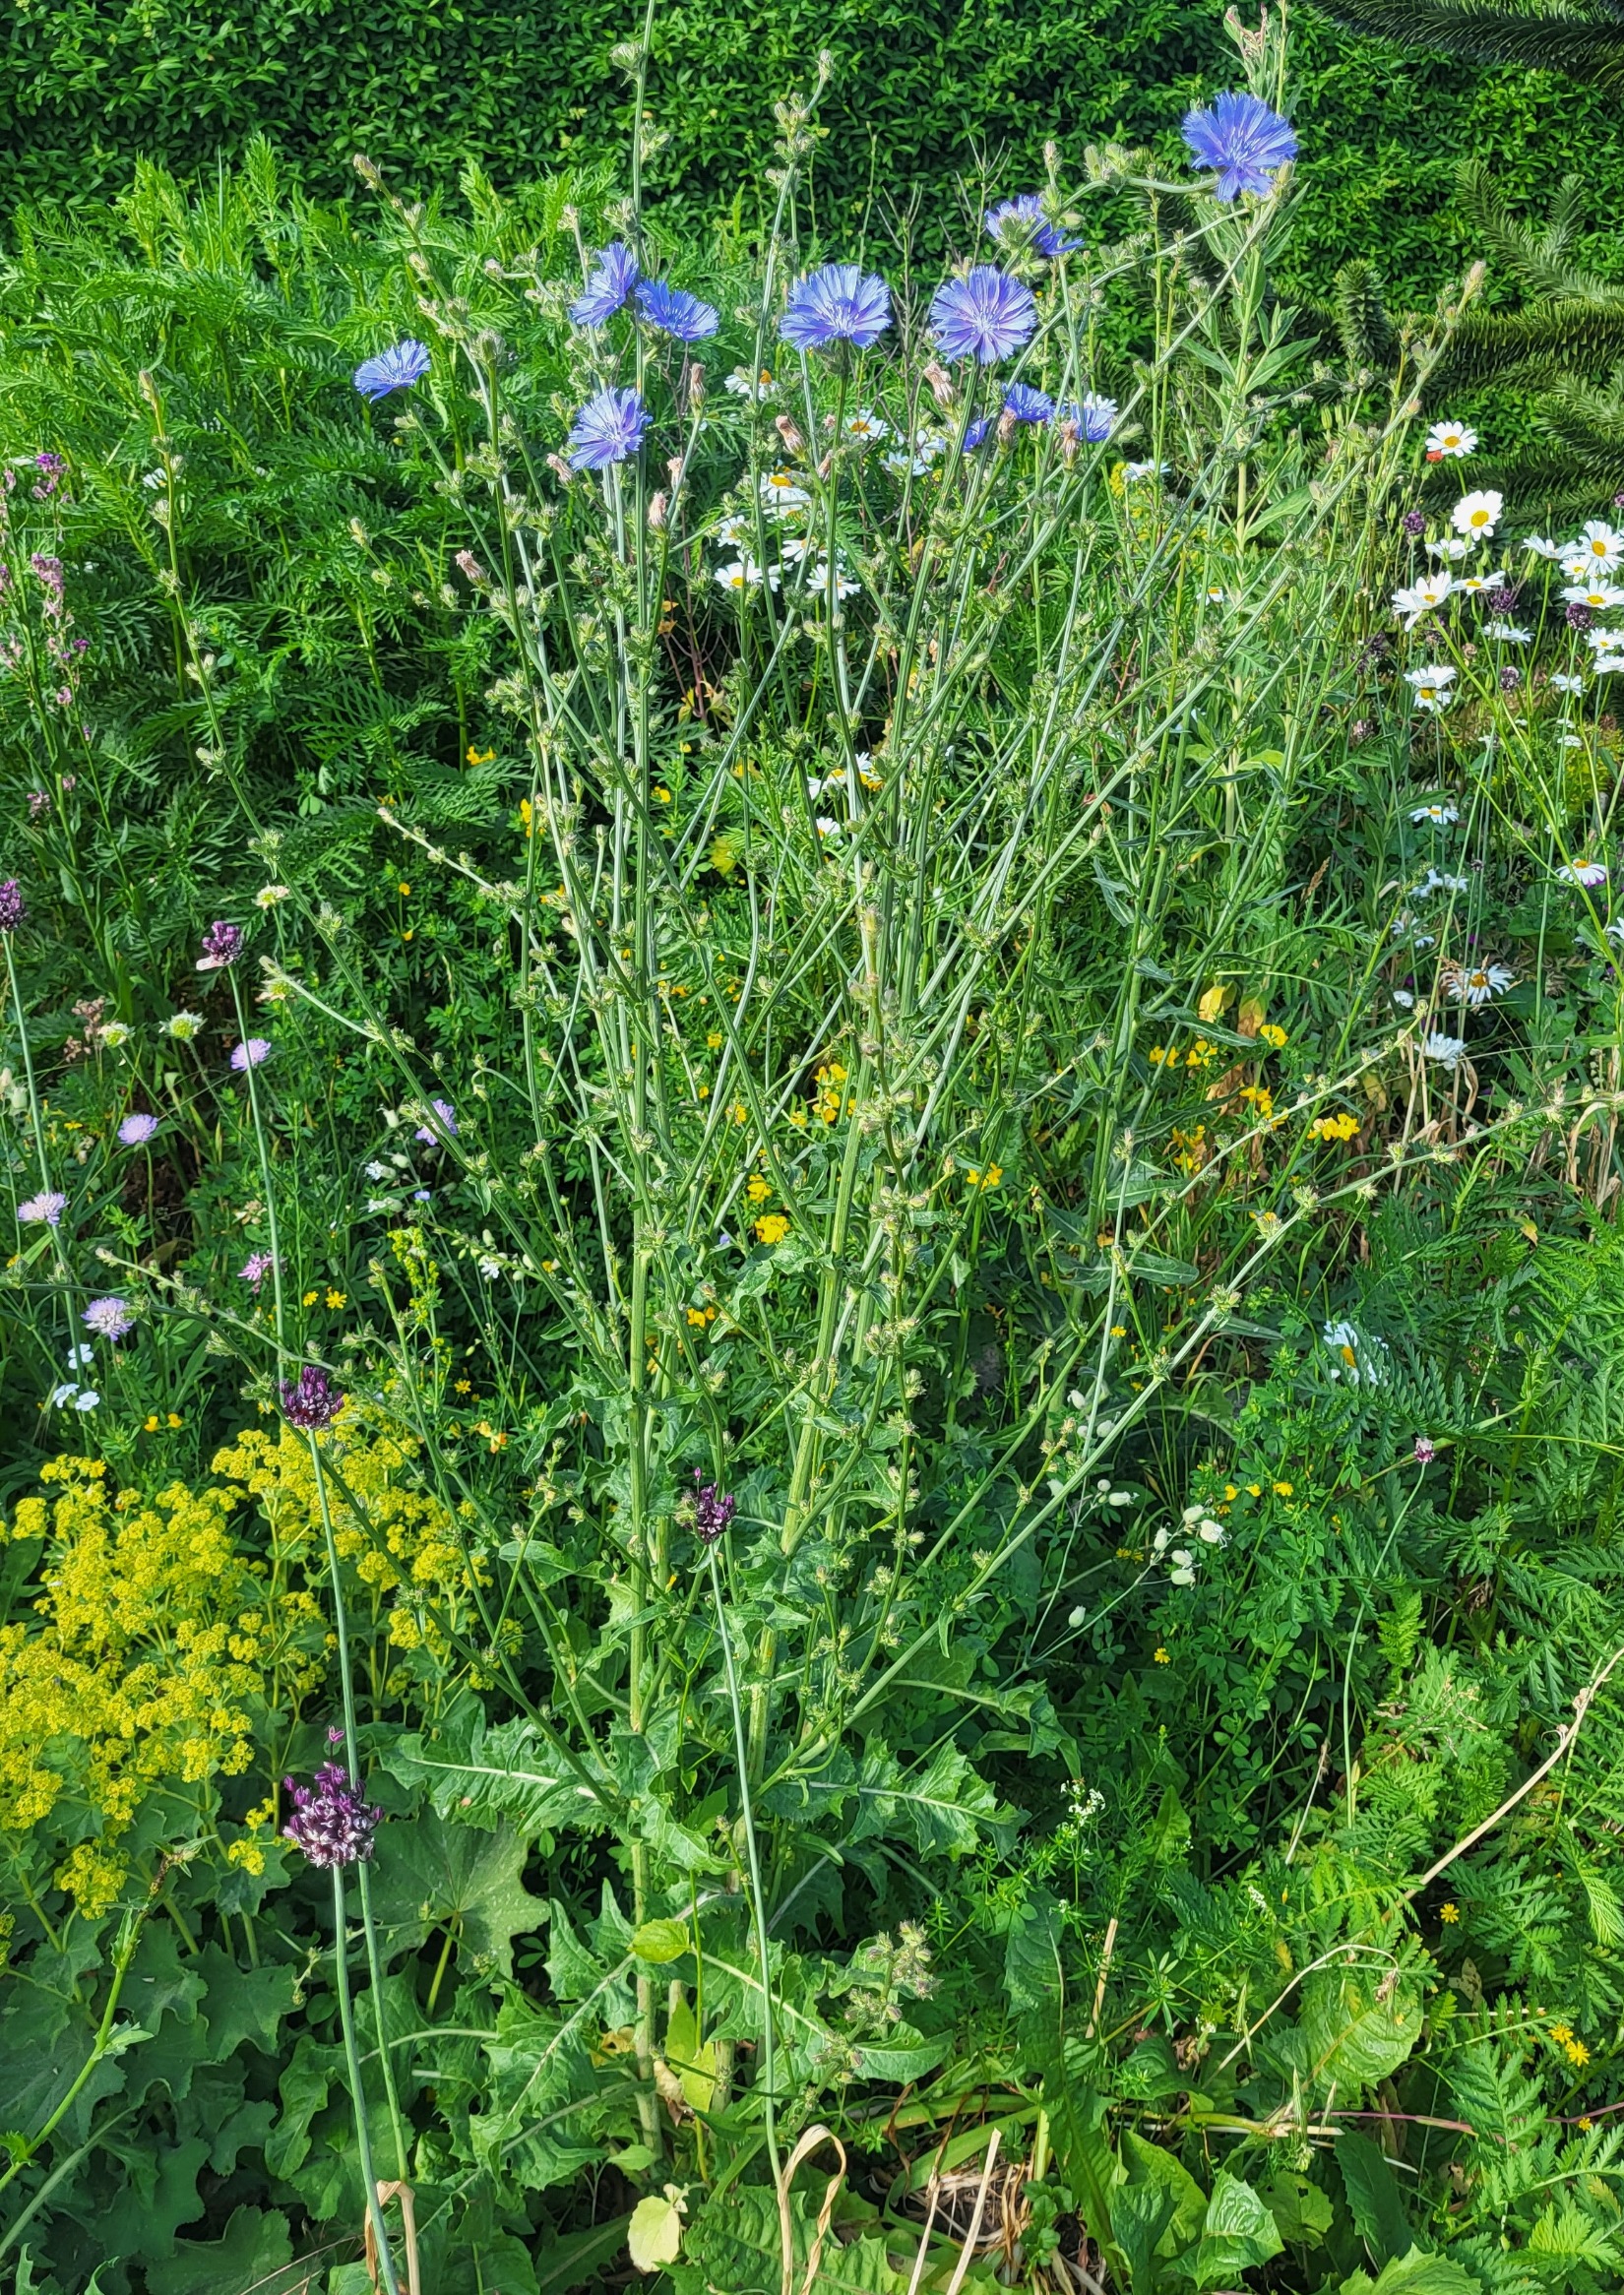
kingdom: Plantae
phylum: Tracheophyta
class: Magnoliopsida
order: Asterales
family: Asteraceae
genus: Cichorium
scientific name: Cichorium intybus
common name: Cikorie
